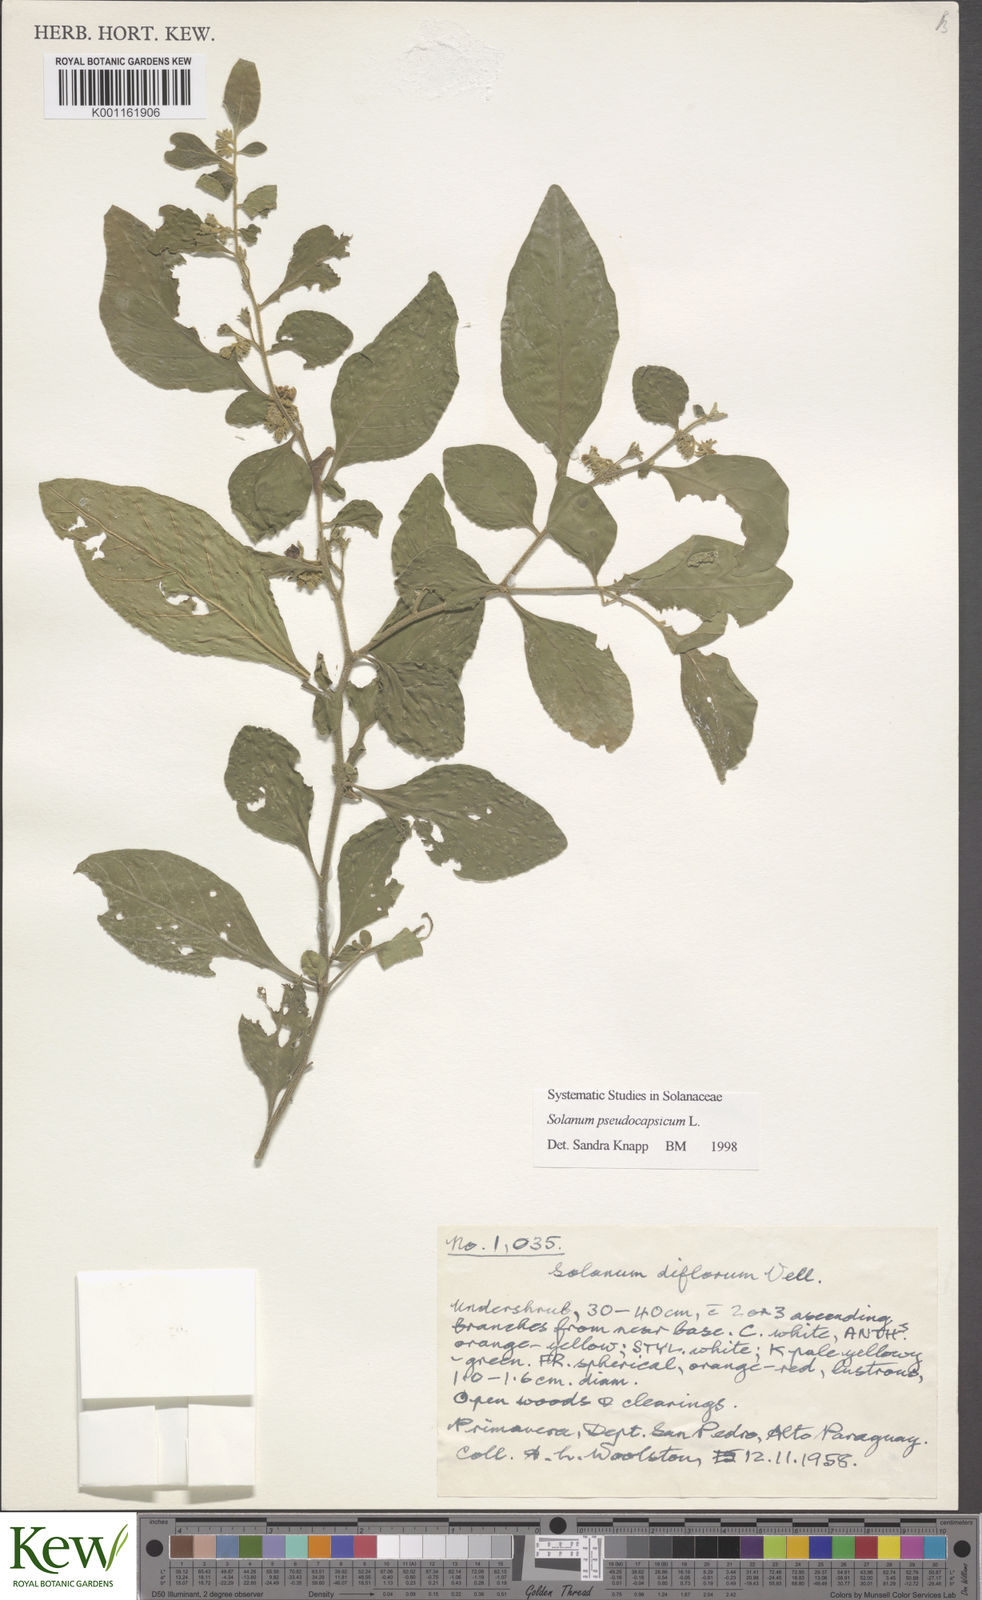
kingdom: Plantae
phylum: Tracheophyta
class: Magnoliopsida
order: Solanales
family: Solanaceae
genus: Solanum
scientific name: Solanum pseudocapsicum
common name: Jerusalem cherry
